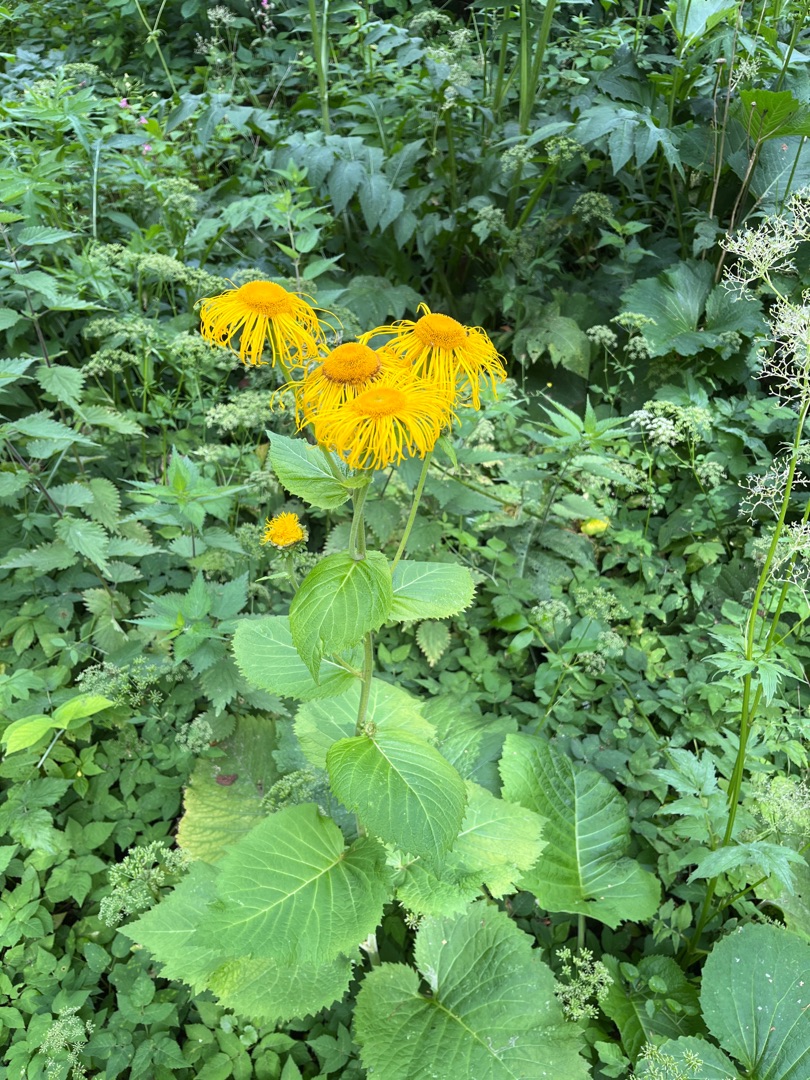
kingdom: Plantae
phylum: Tracheophyta
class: Magnoliopsida
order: Asterales
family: Asteraceae
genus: Telekia
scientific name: Telekia speciosa
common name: Tusindstråle
